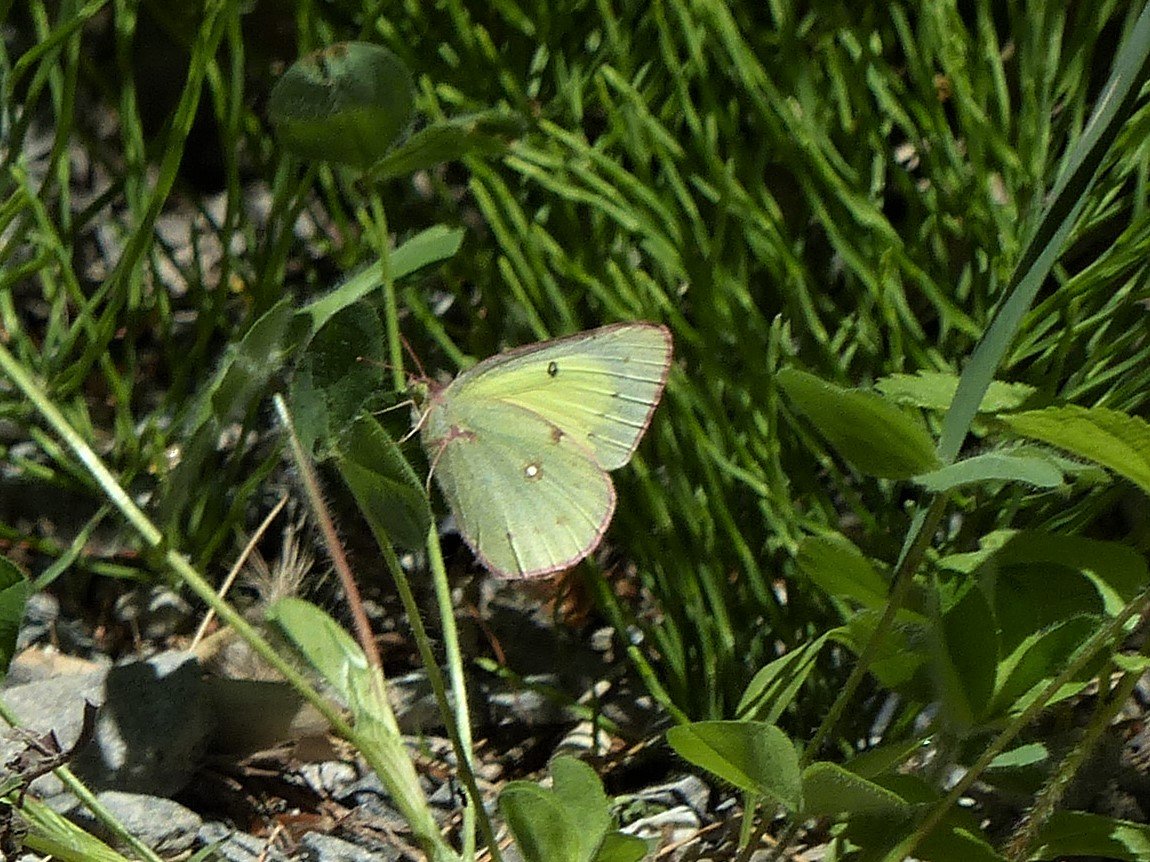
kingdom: Animalia
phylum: Arthropoda
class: Insecta
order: Lepidoptera
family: Pieridae
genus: Colias
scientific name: Colias philodice
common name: Clouded Sulphur
